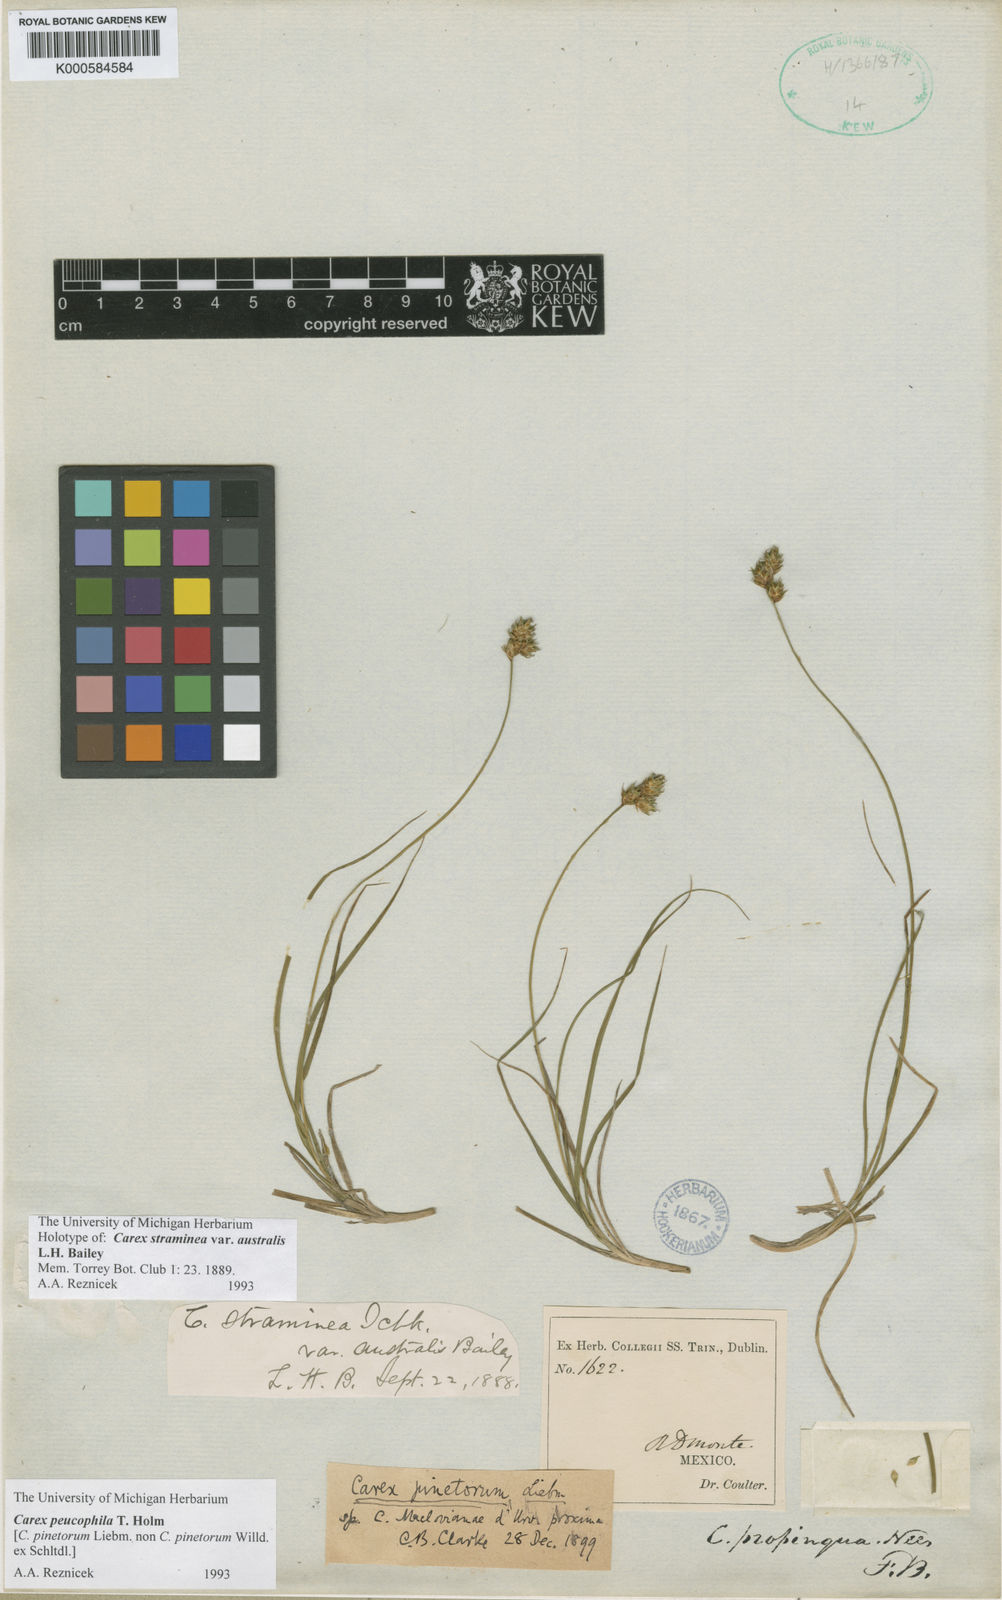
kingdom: Plantae
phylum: Tracheophyta
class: Liliopsida
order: Poales
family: Cyperaceae
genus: Carex
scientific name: Carex peucophila
